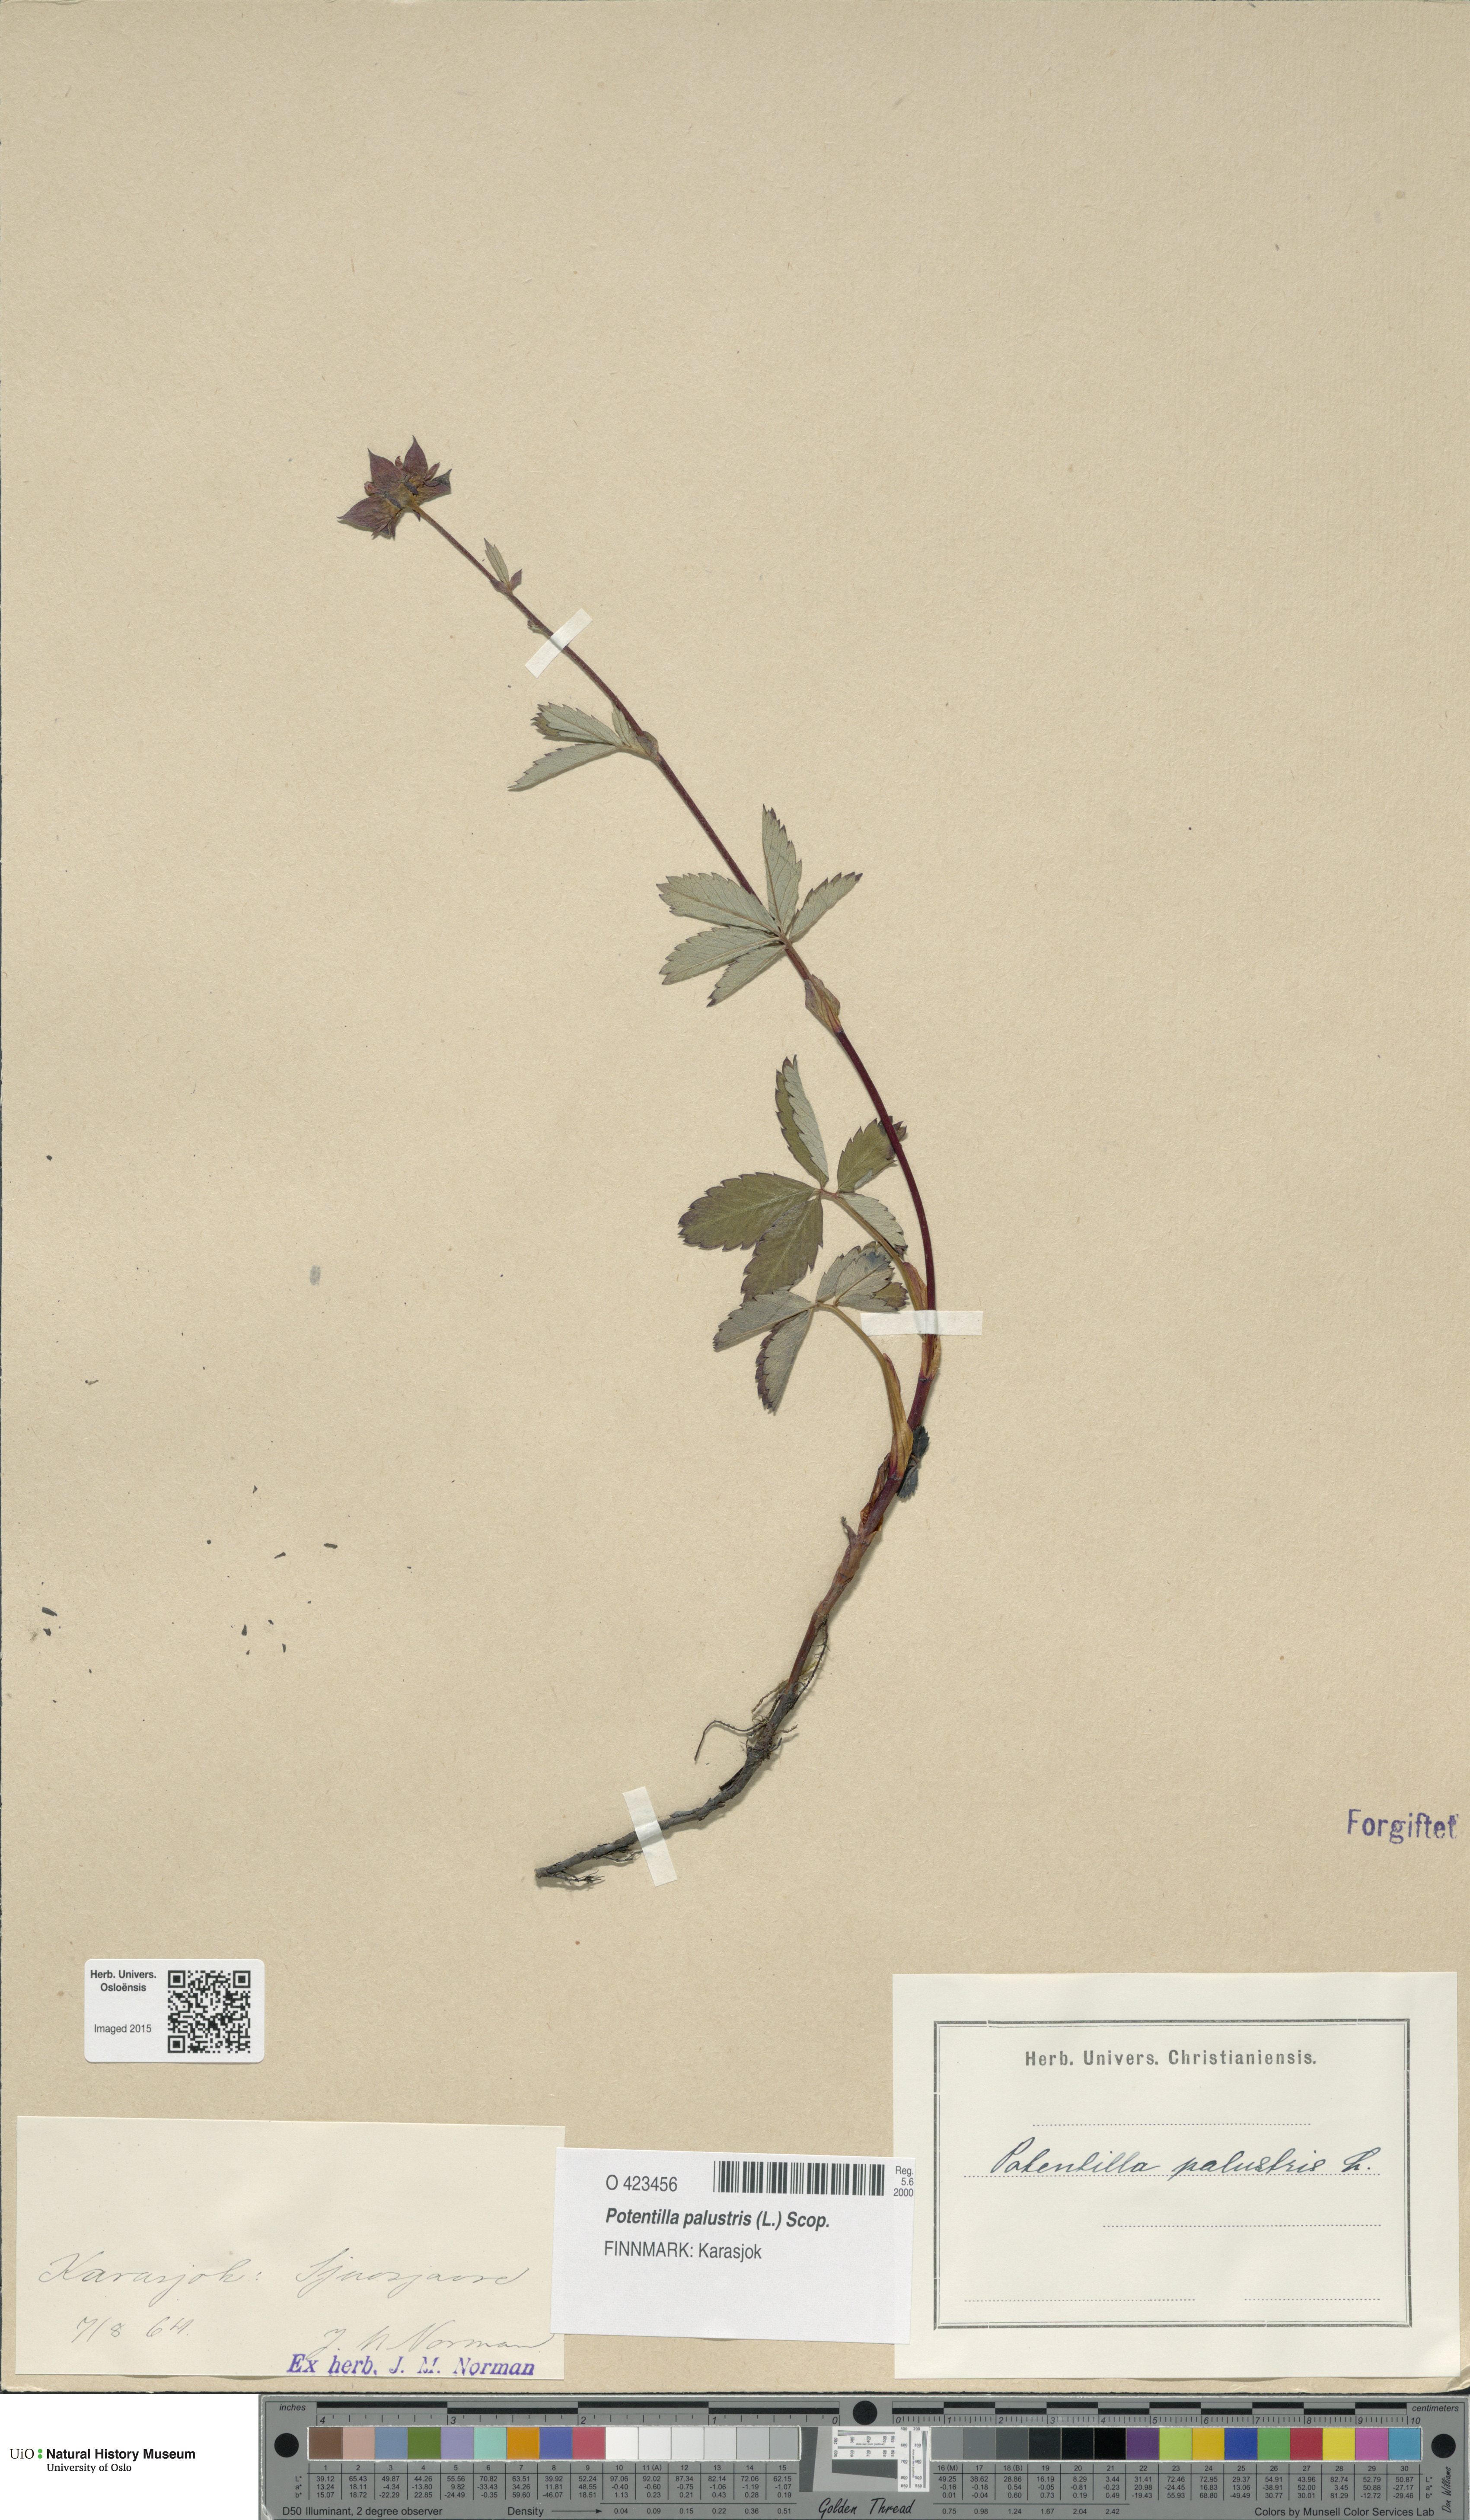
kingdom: Plantae
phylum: Tracheophyta
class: Magnoliopsida
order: Rosales
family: Rosaceae
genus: Comarum
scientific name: Comarum palustre
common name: Marsh cinquefoil
